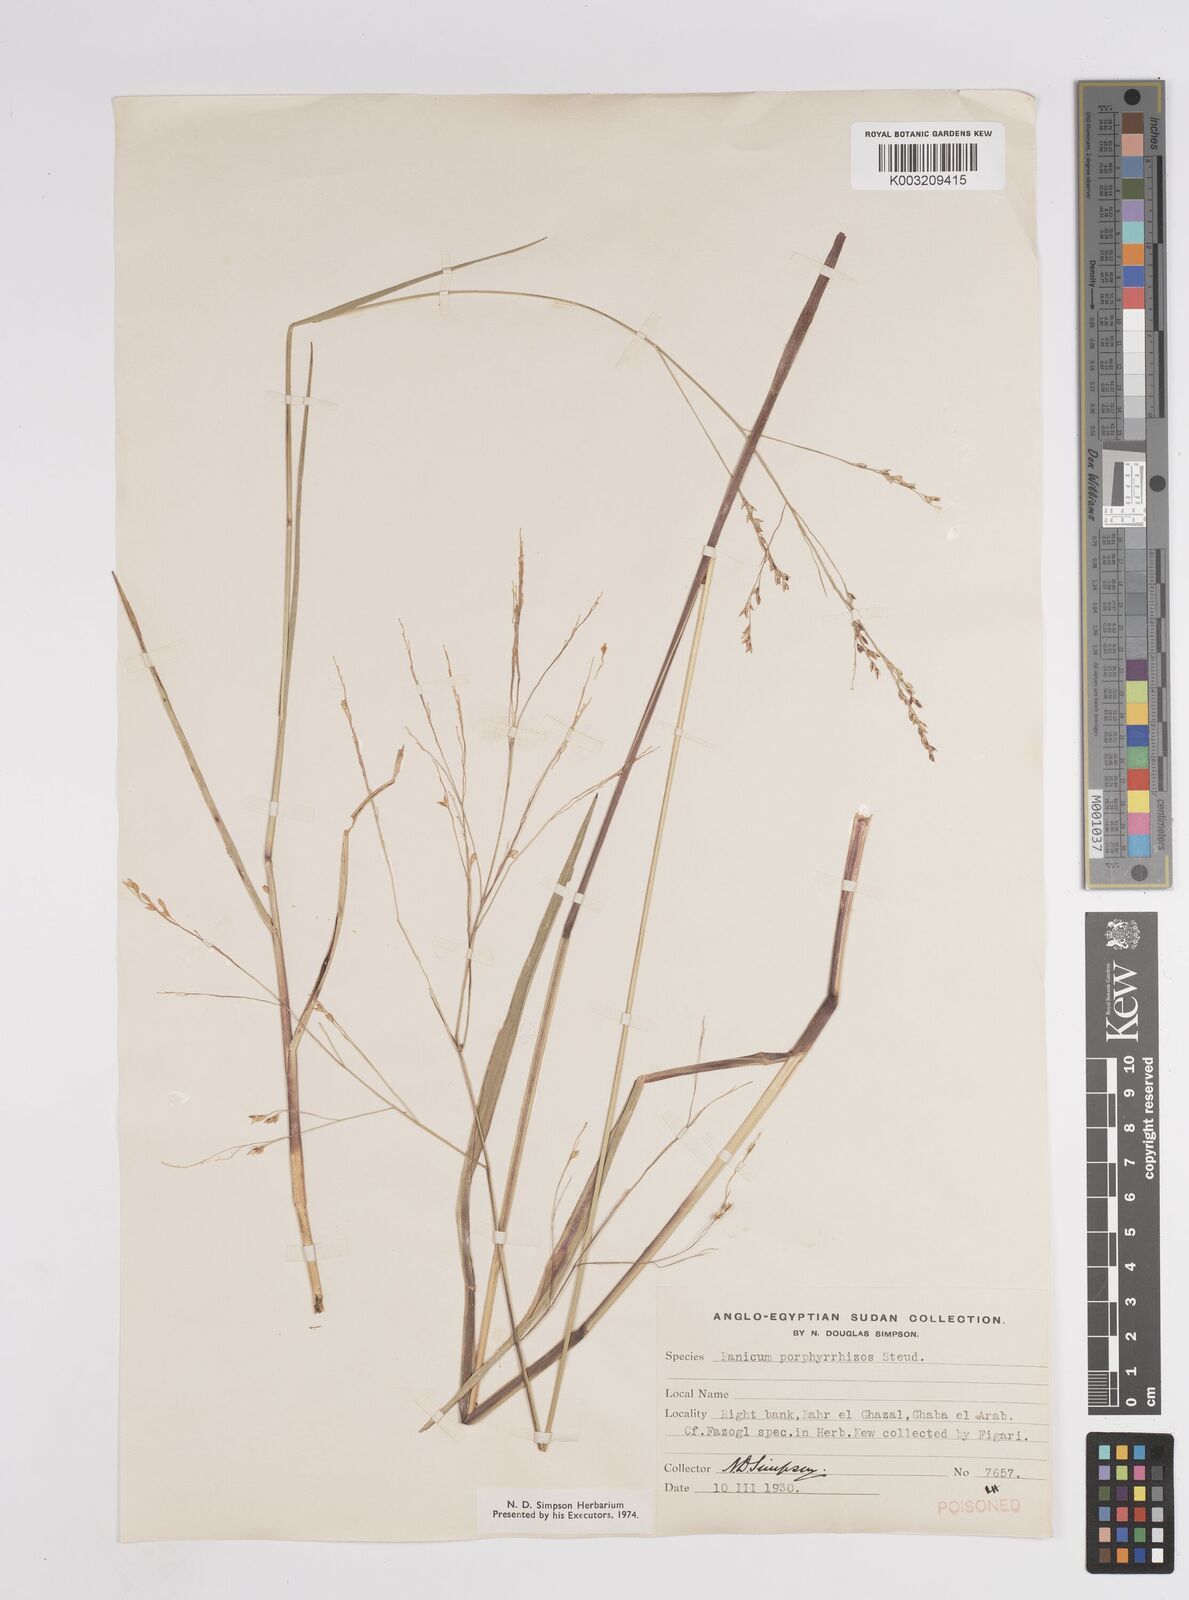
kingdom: Plantae
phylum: Tracheophyta
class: Liliopsida
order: Poales
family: Poaceae
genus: Panicum
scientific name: Panicum repens
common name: Torpedo grass
